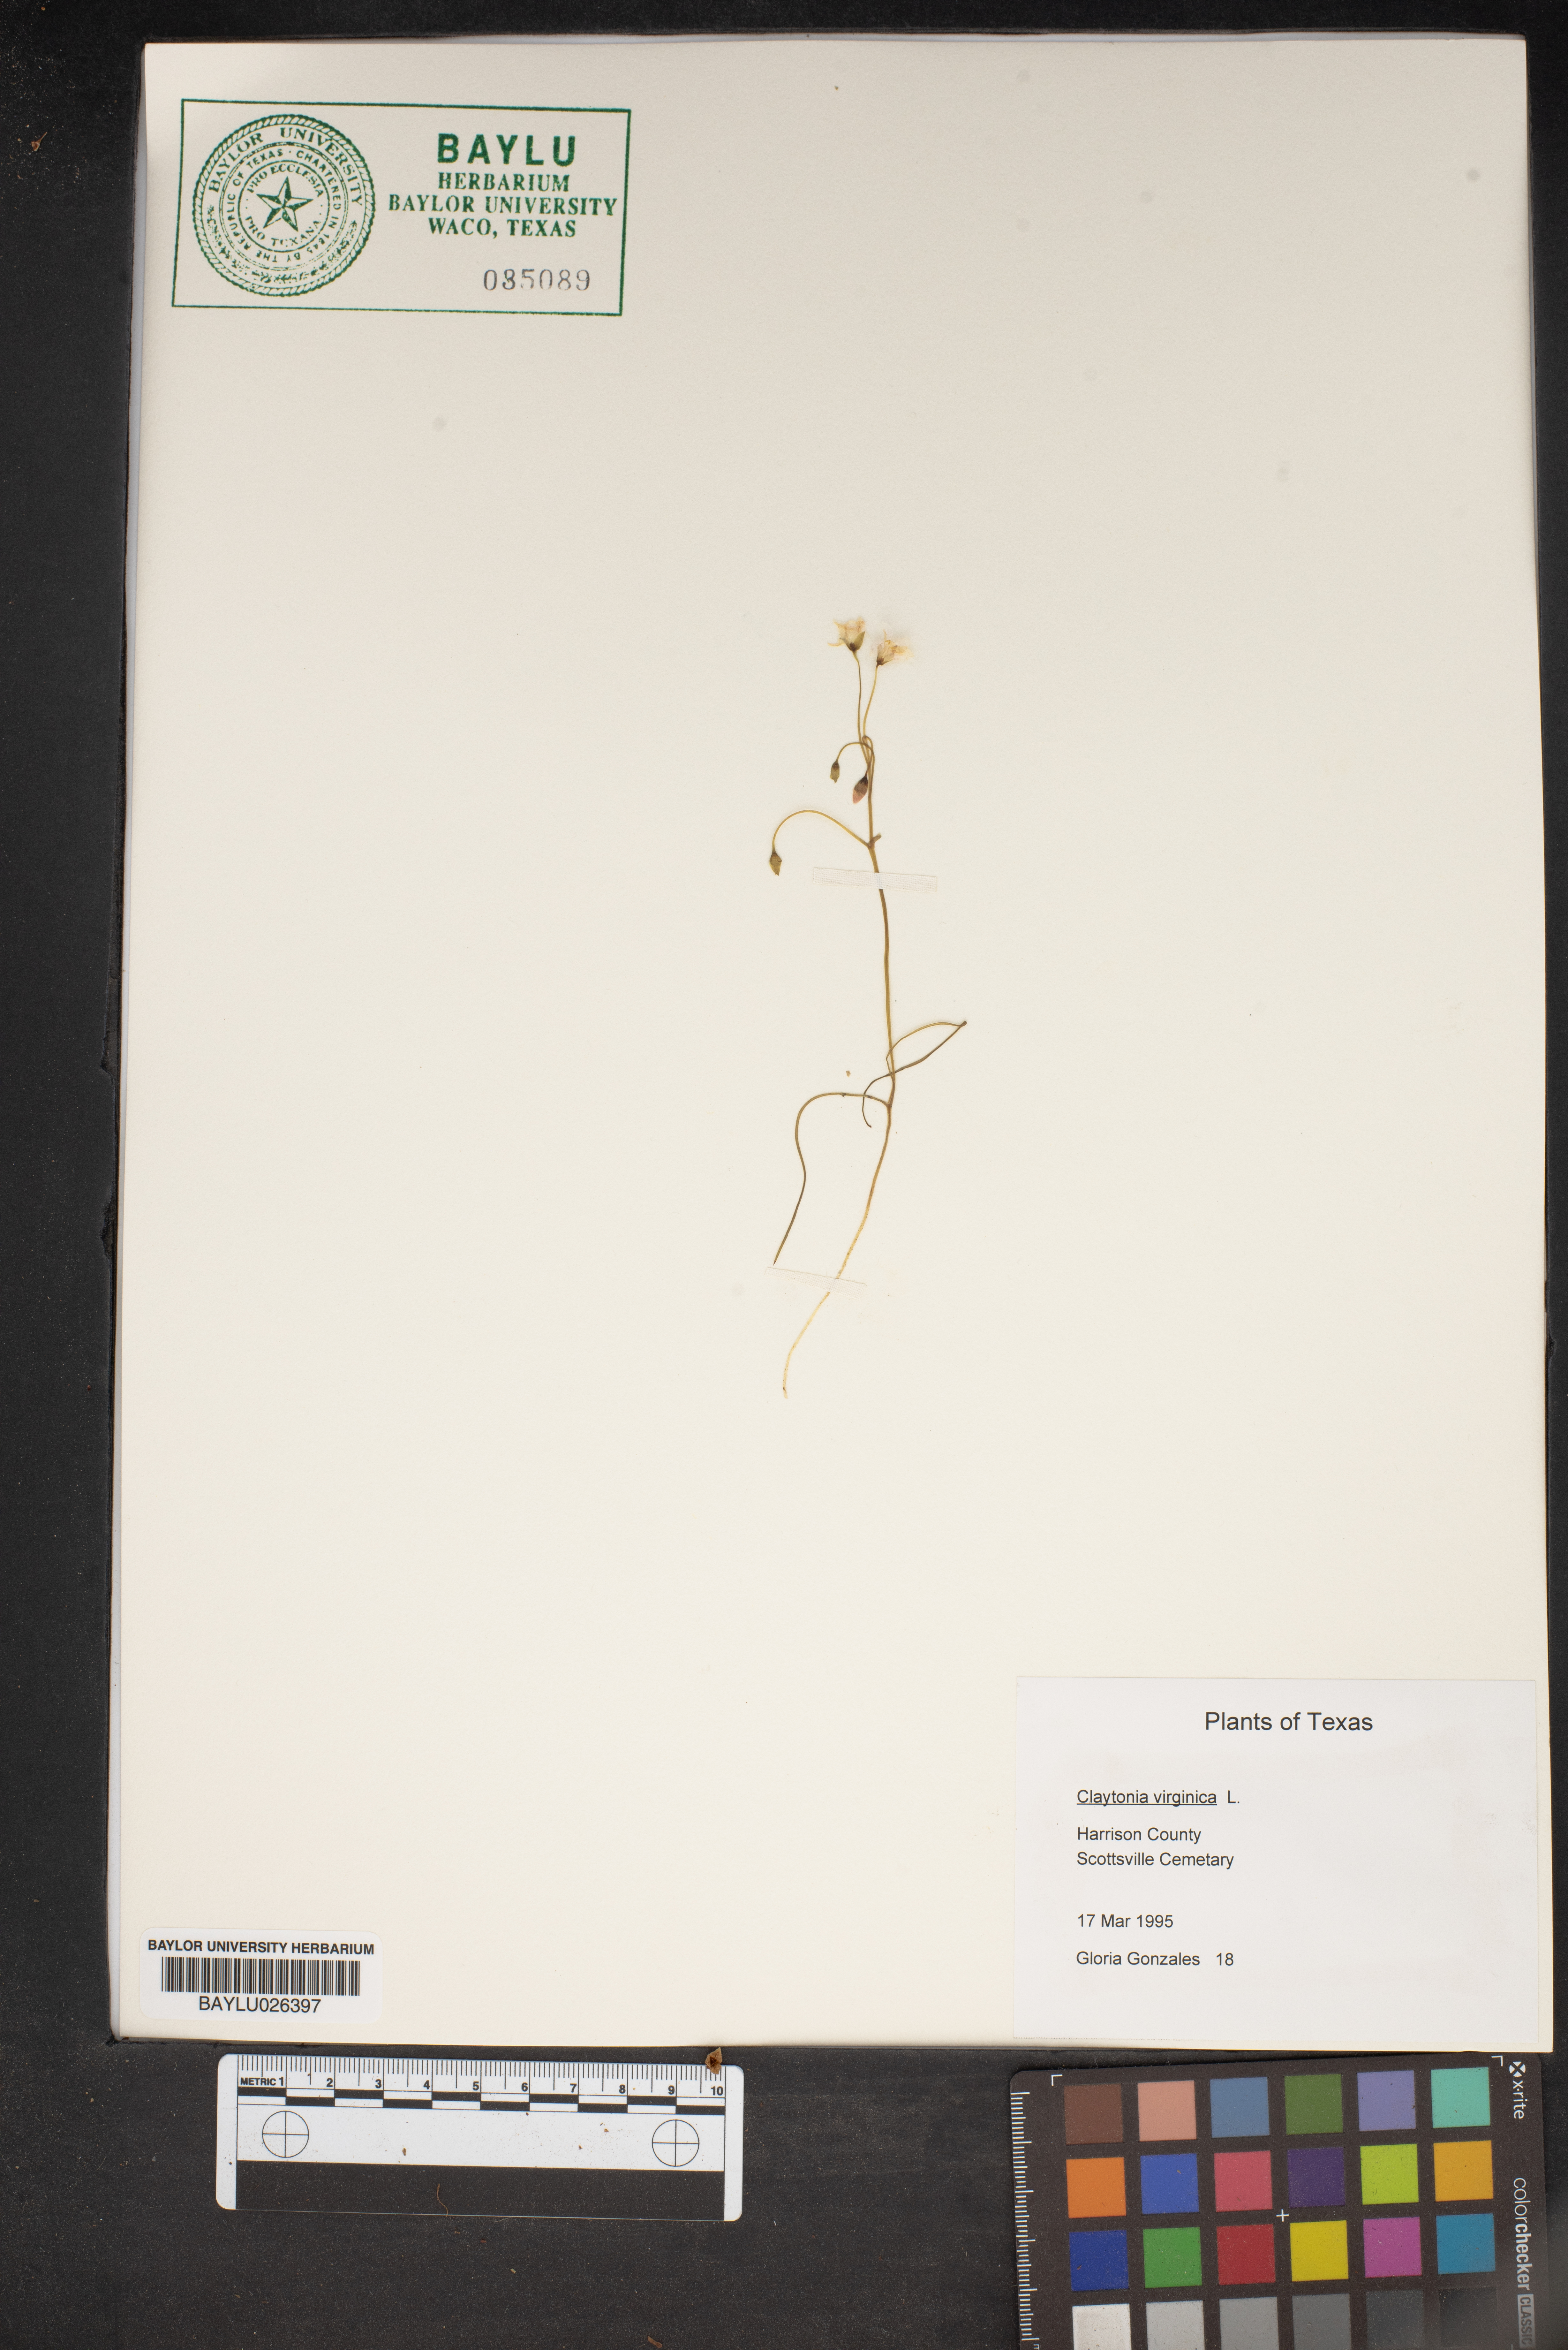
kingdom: Plantae
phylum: Tracheophyta
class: Magnoliopsida
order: Caryophyllales
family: Montiaceae
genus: Claytonia
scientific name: Claytonia virginica
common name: Virginia springbeauty
